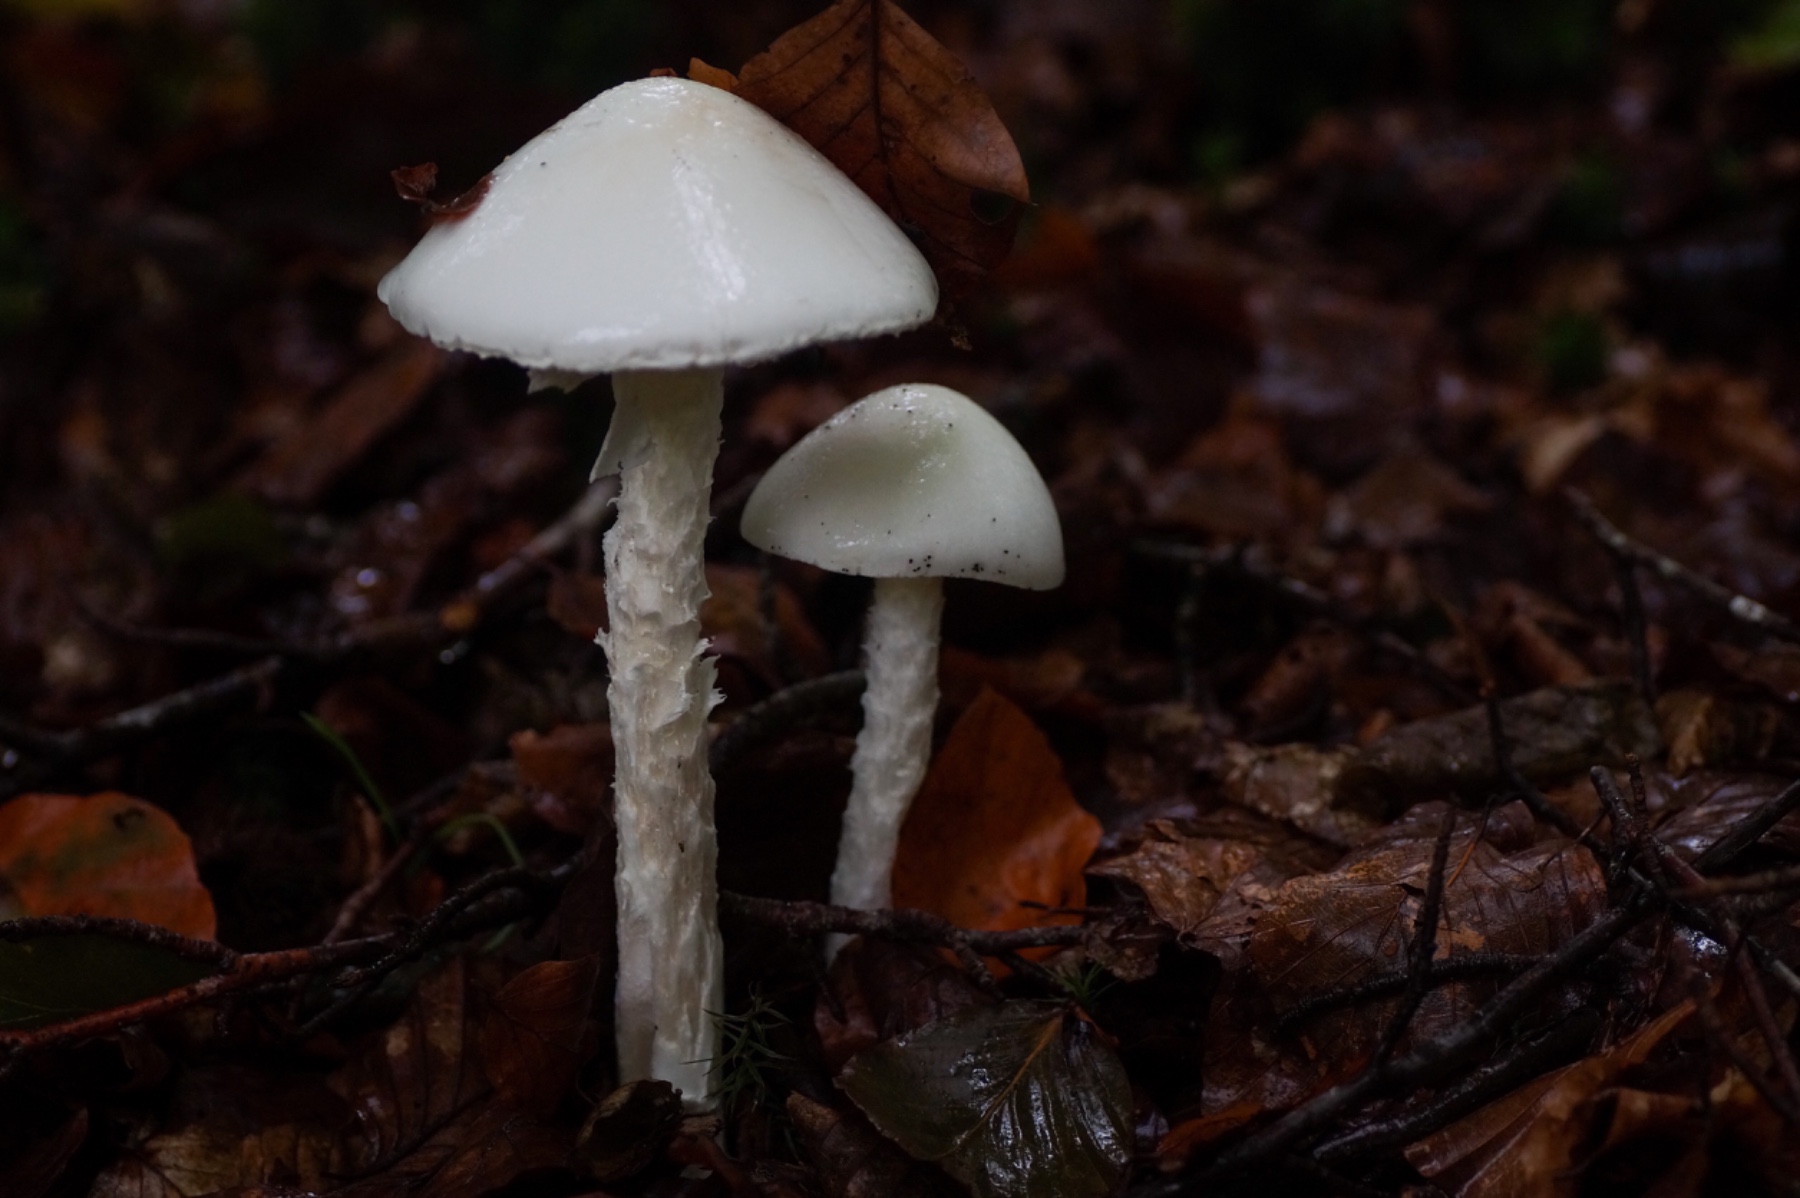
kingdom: Fungi
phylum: Basidiomycota
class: Agaricomycetes
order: Agaricales
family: Amanitaceae
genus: Amanita
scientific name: Amanita virosa
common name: snehvid fluesvamp
